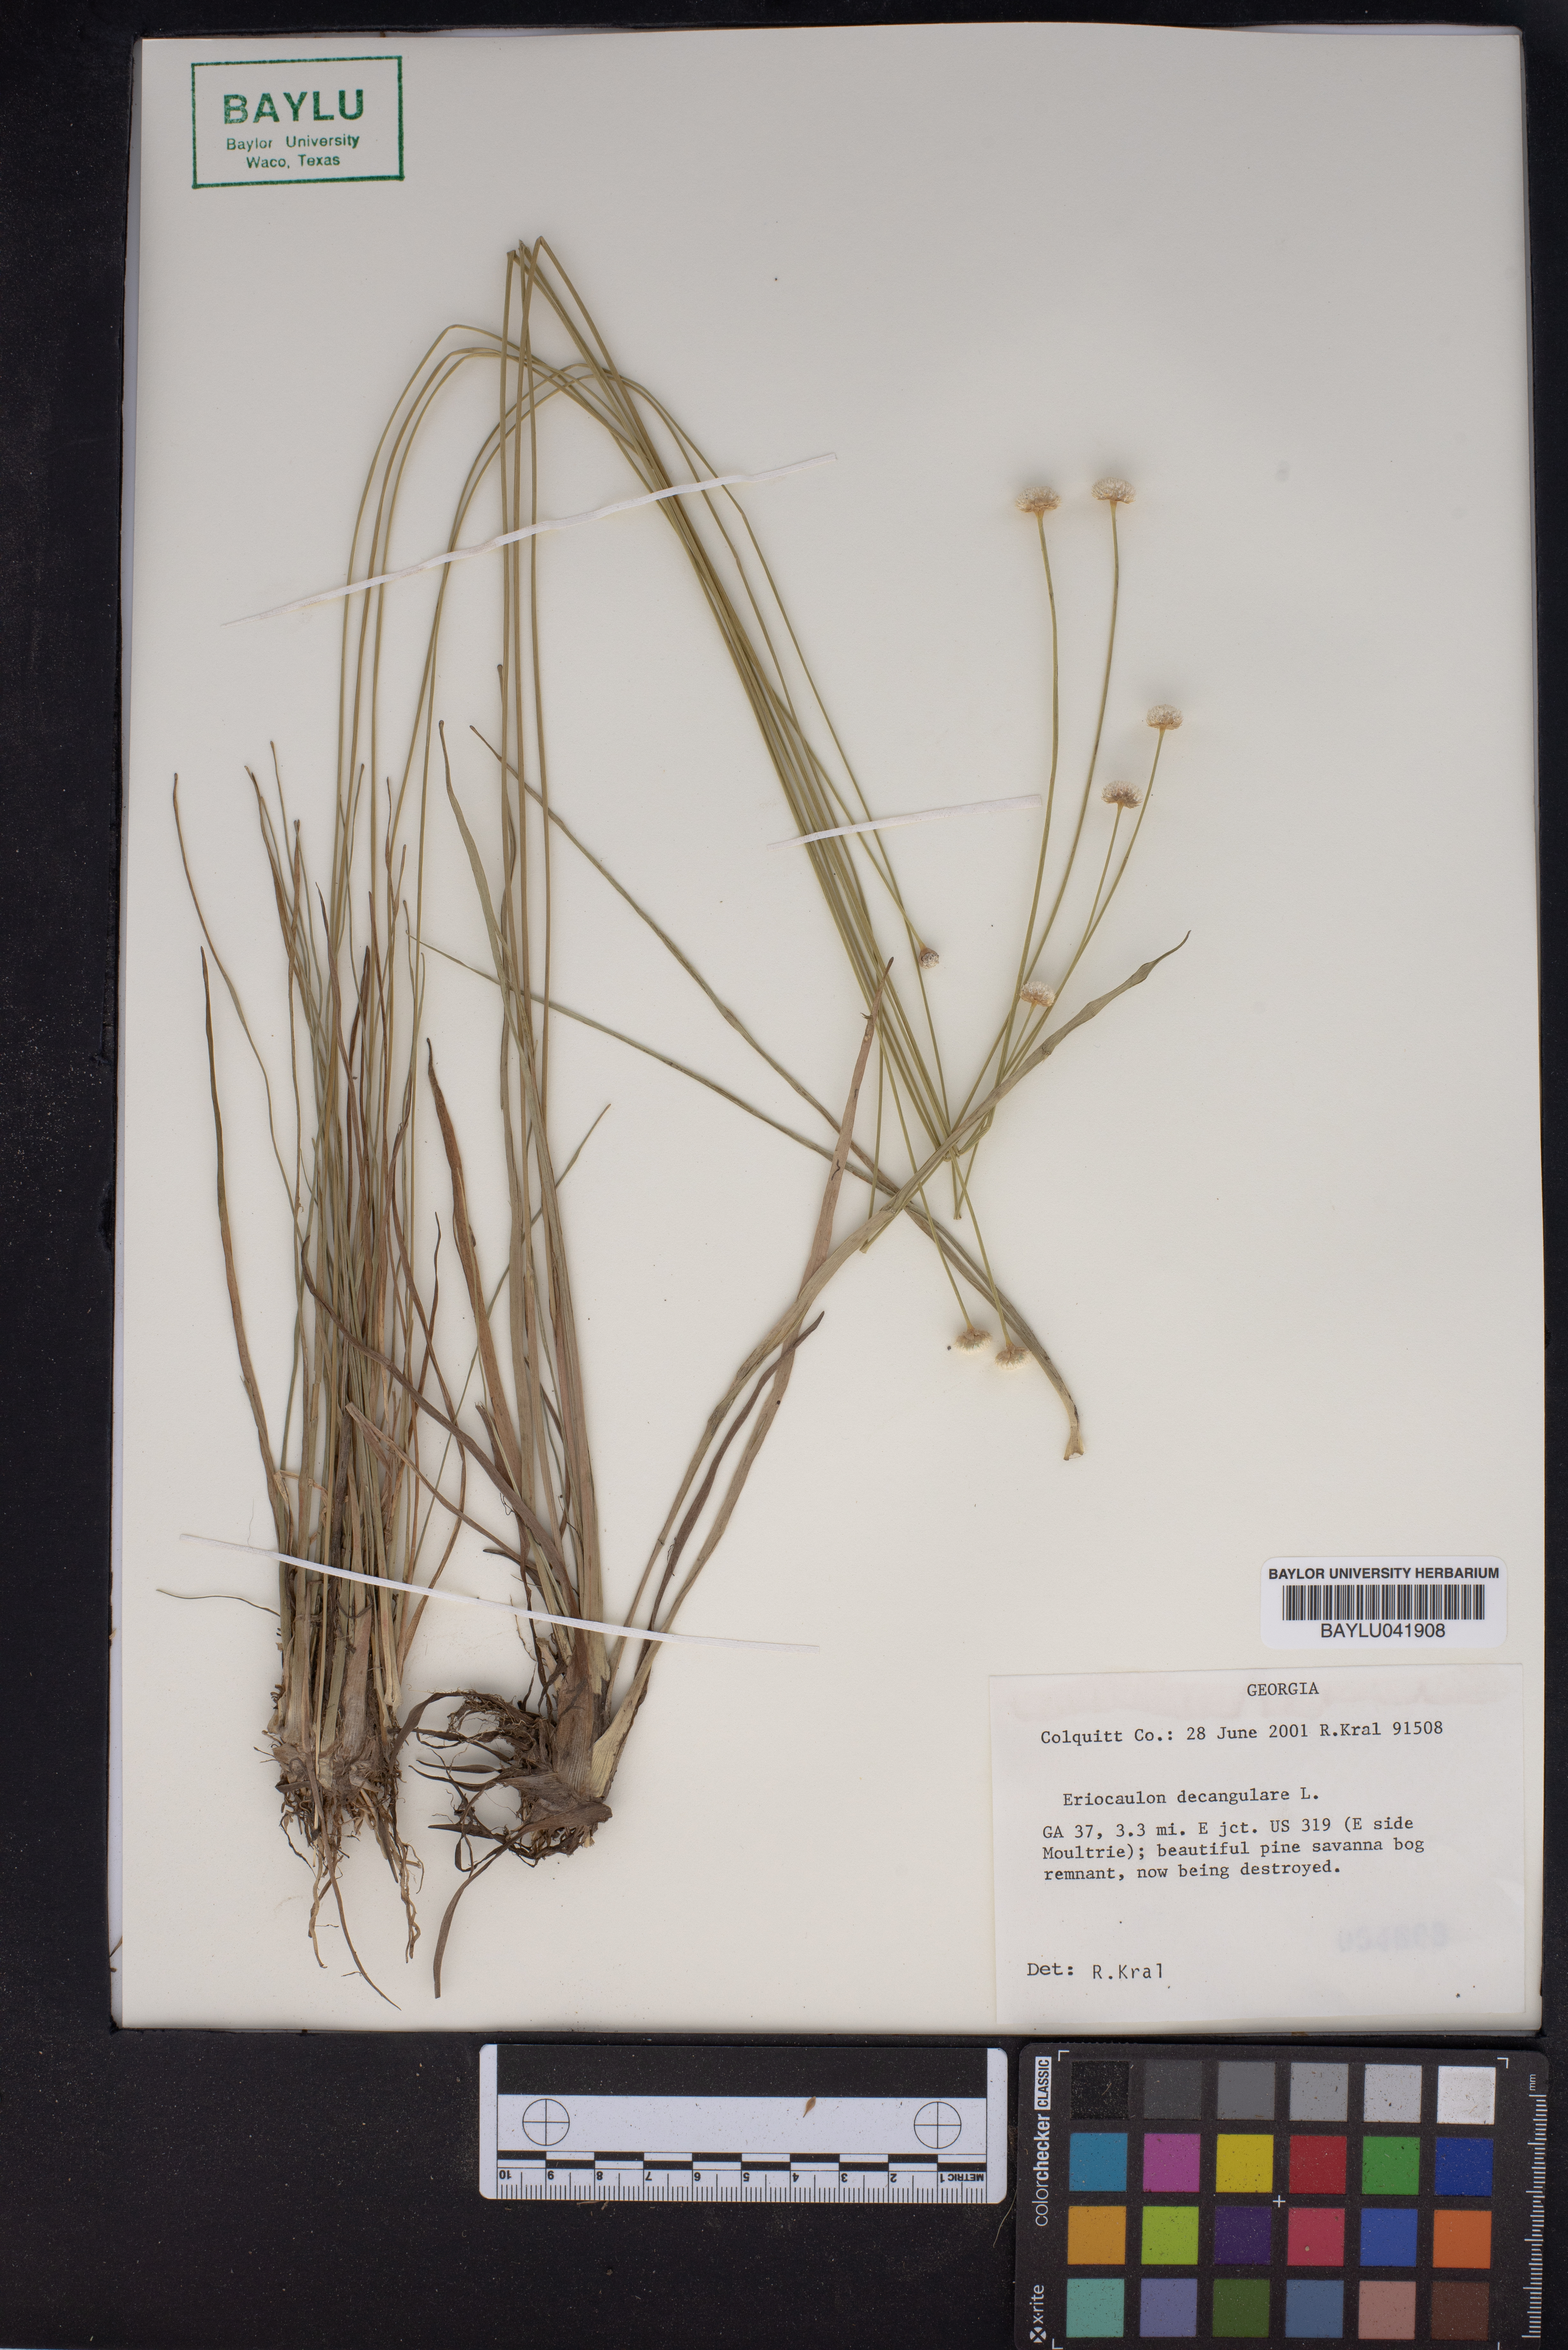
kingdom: Plantae
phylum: Tracheophyta
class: Liliopsida
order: Poales
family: Eriocaulaceae
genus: Eriocaulon
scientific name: Eriocaulon decangulare
